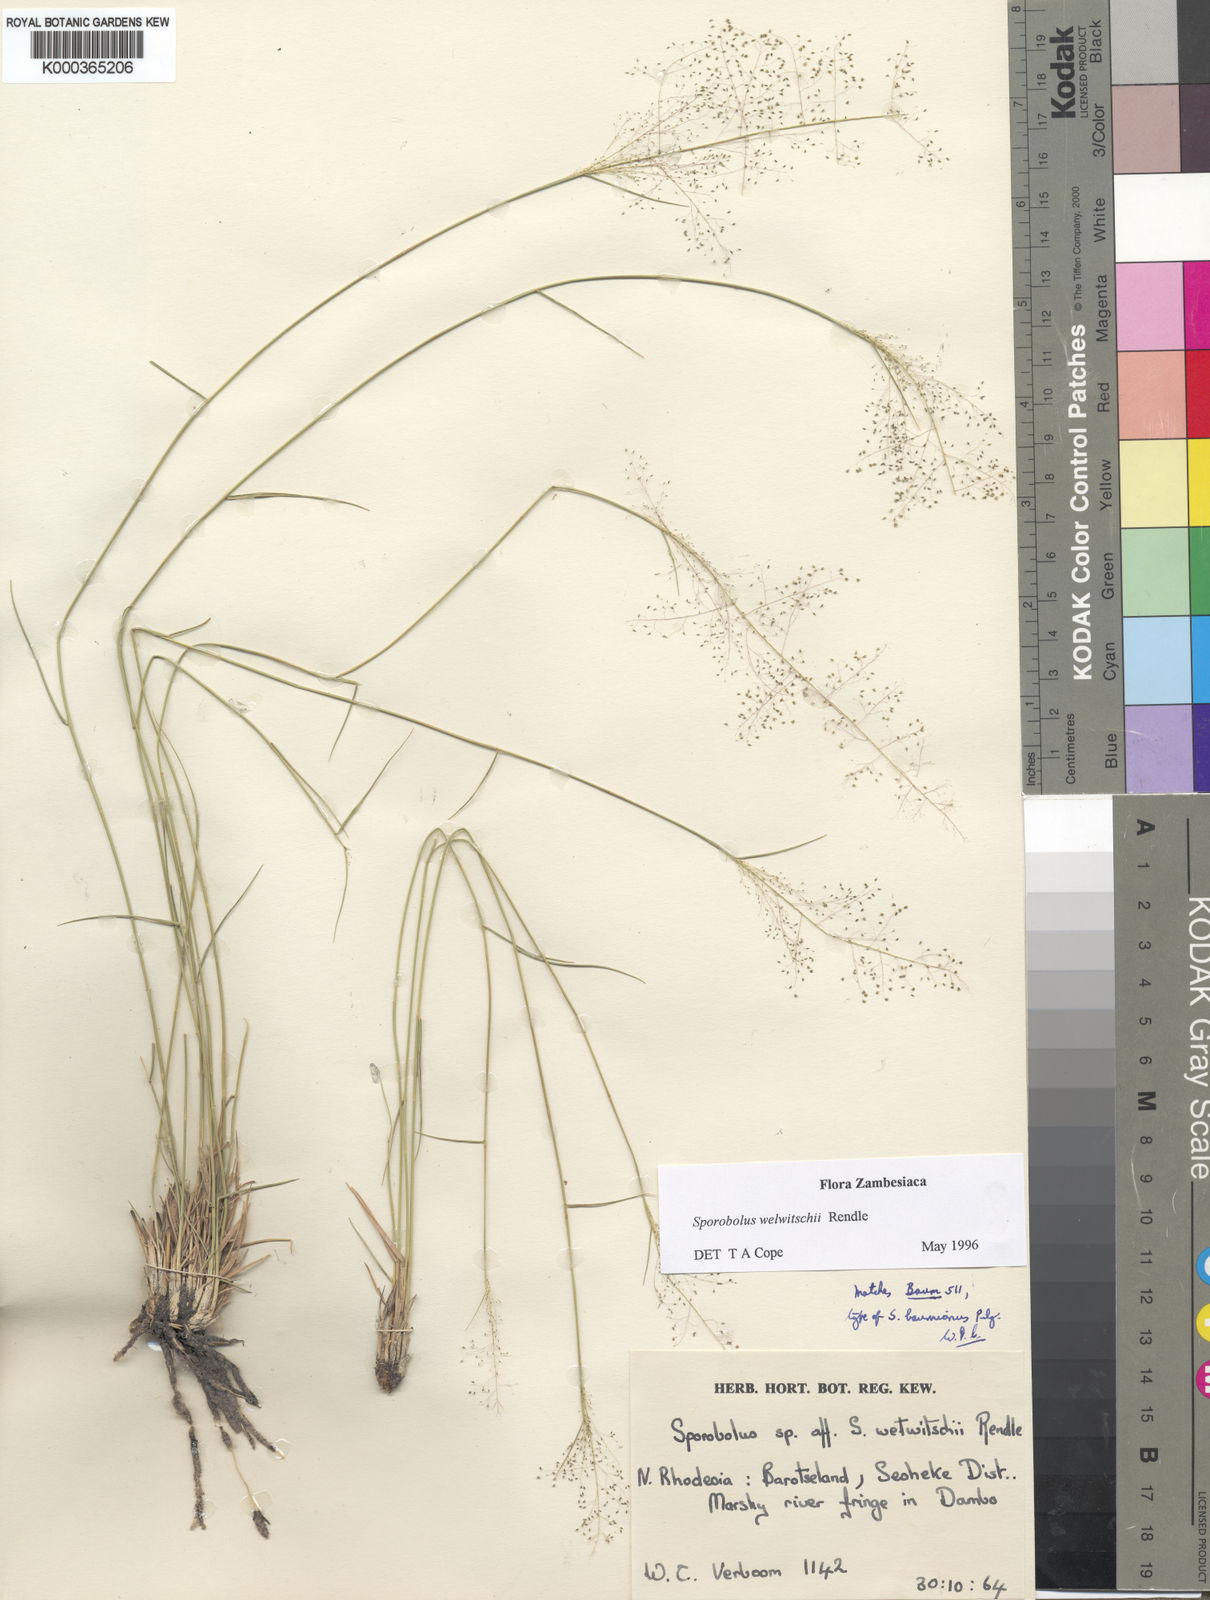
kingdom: Plantae
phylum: Tracheophyta
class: Liliopsida
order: Poales
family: Poaceae
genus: Sporobolus
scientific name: Sporobolus welwitschii
